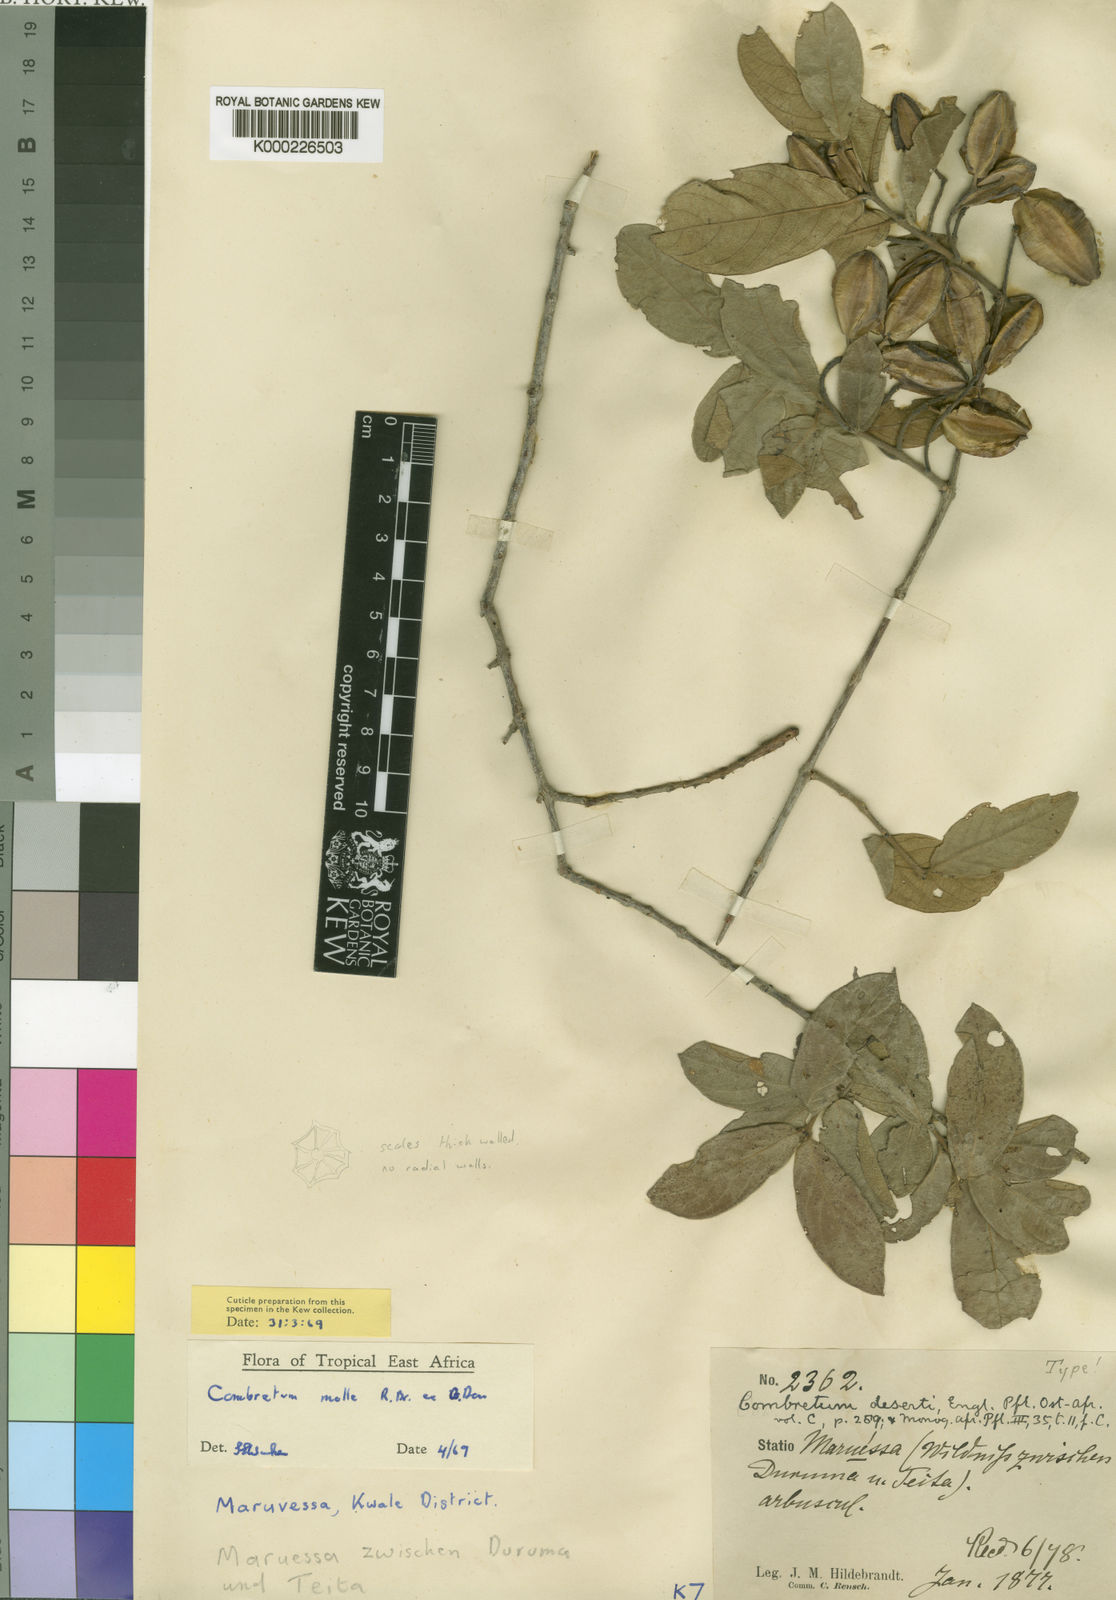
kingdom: Plantae
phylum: Tracheophyta
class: Magnoliopsida
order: Myrtales
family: Combretaceae
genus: Combretum
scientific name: Combretum molle
